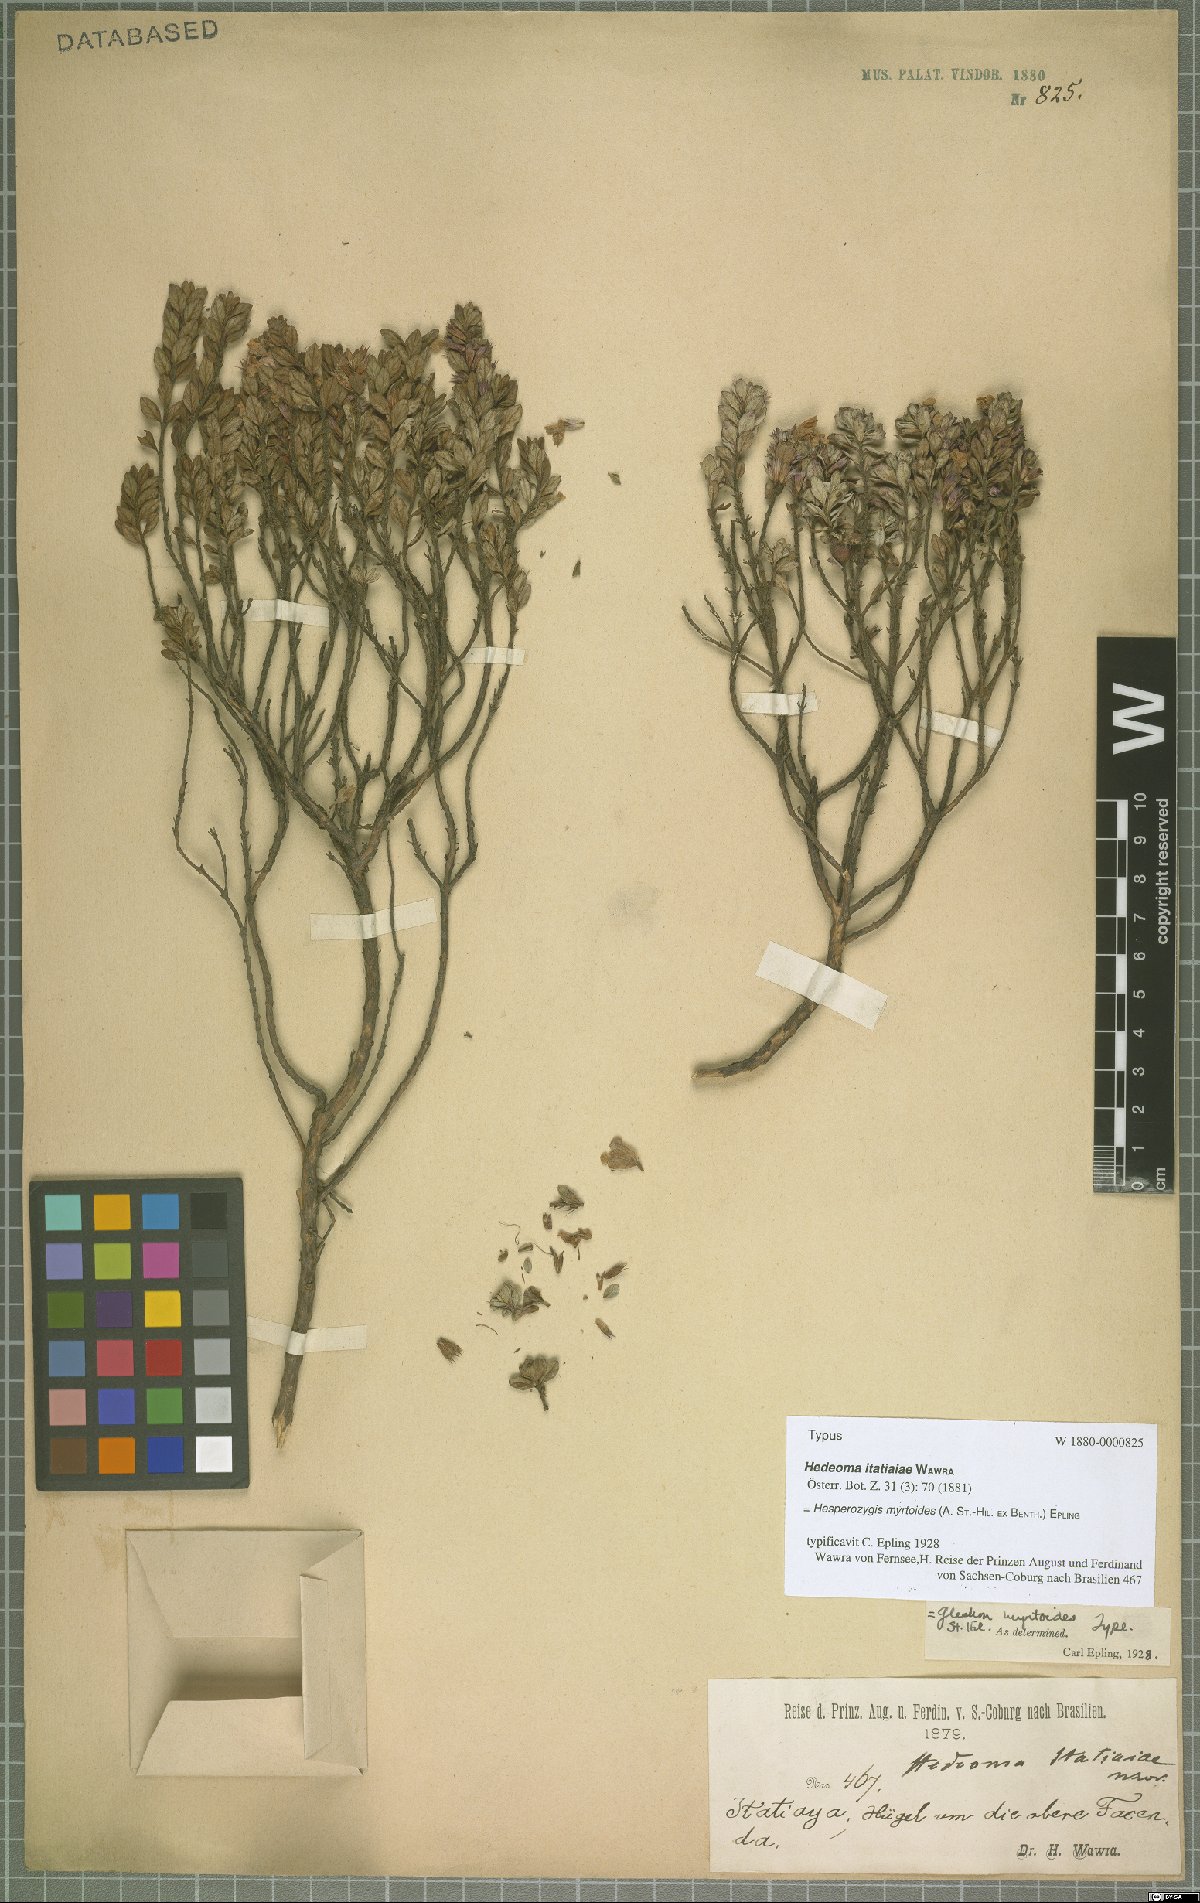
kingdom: Plantae
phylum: Tracheophyta
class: Magnoliopsida
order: Lamiales
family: Lamiaceae
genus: Hesperozygis
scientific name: Hesperozygis myrtoides
